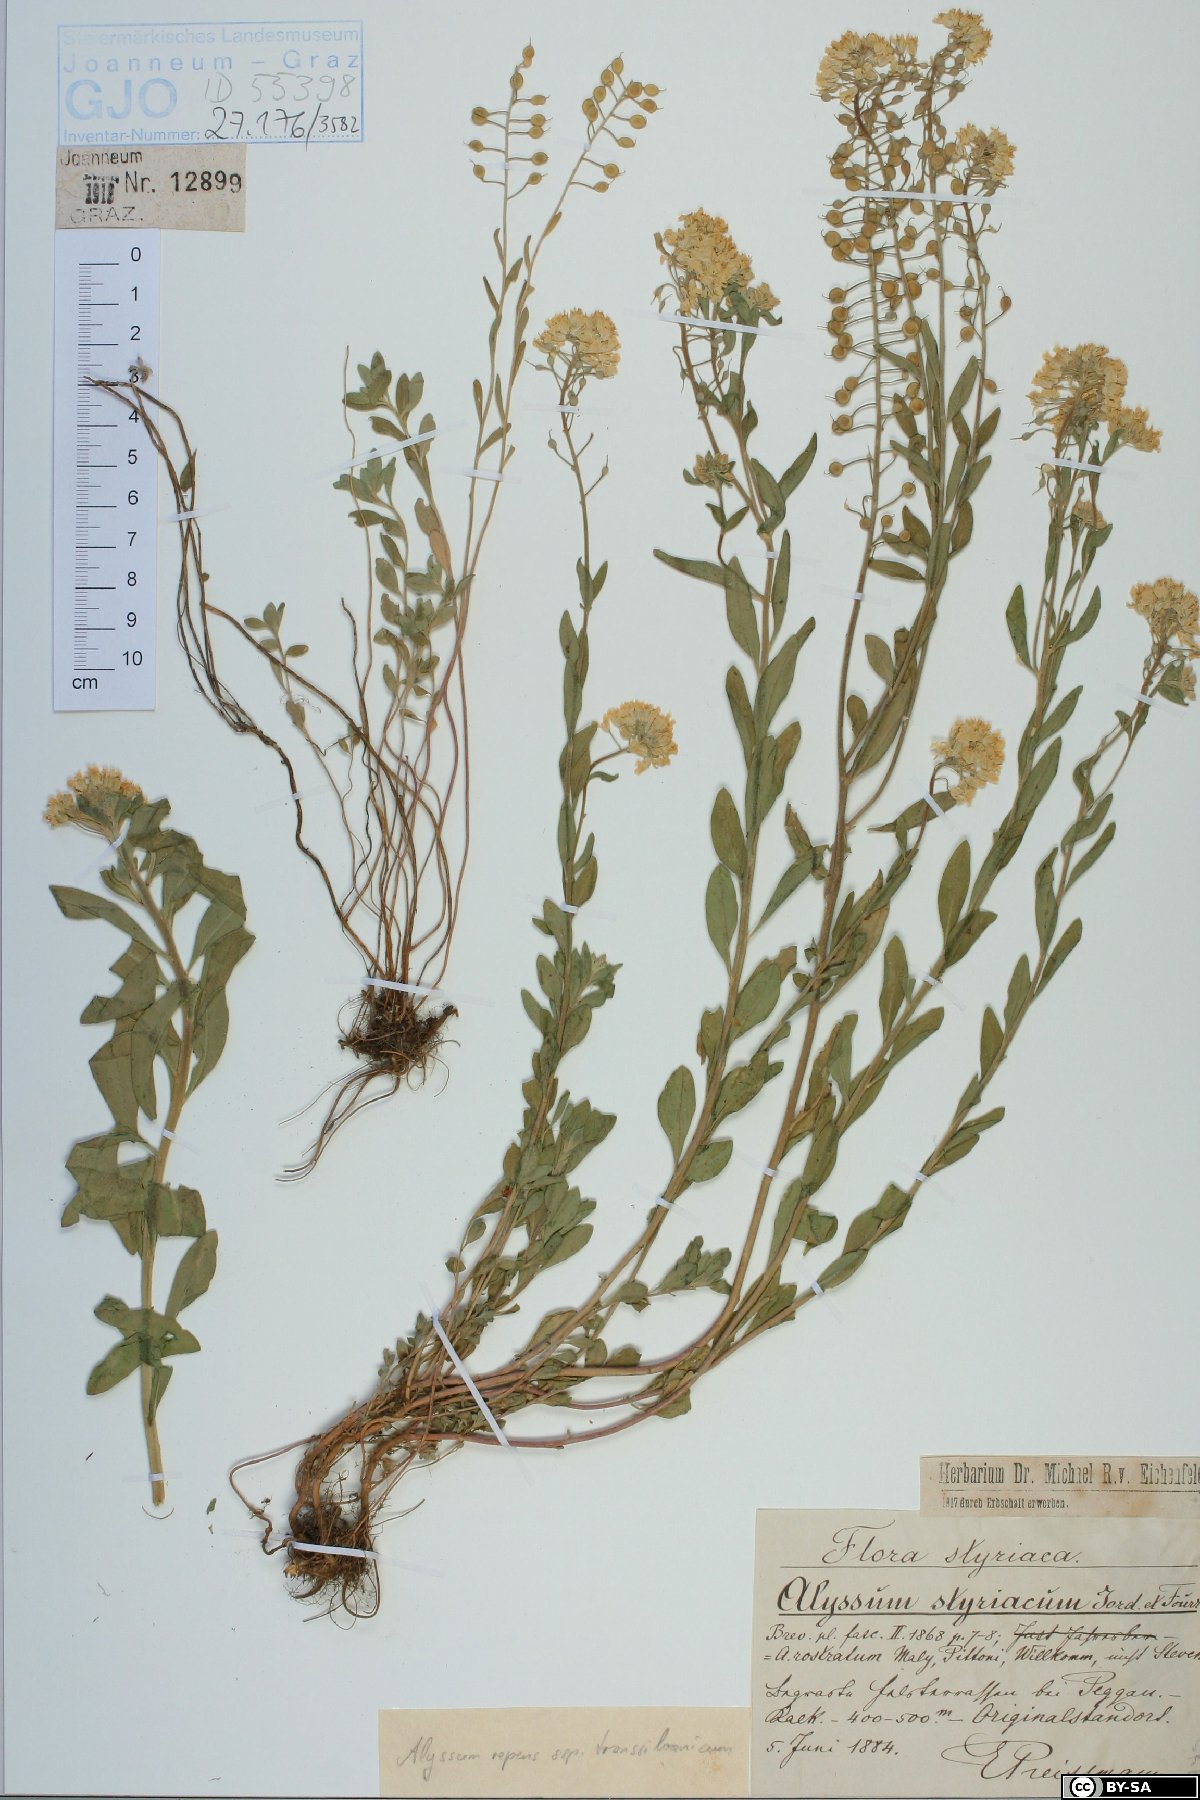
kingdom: Plantae
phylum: Tracheophyta
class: Magnoliopsida
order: Brassicales
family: Brassicaceae
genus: Alyssum
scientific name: Alyssum repens
